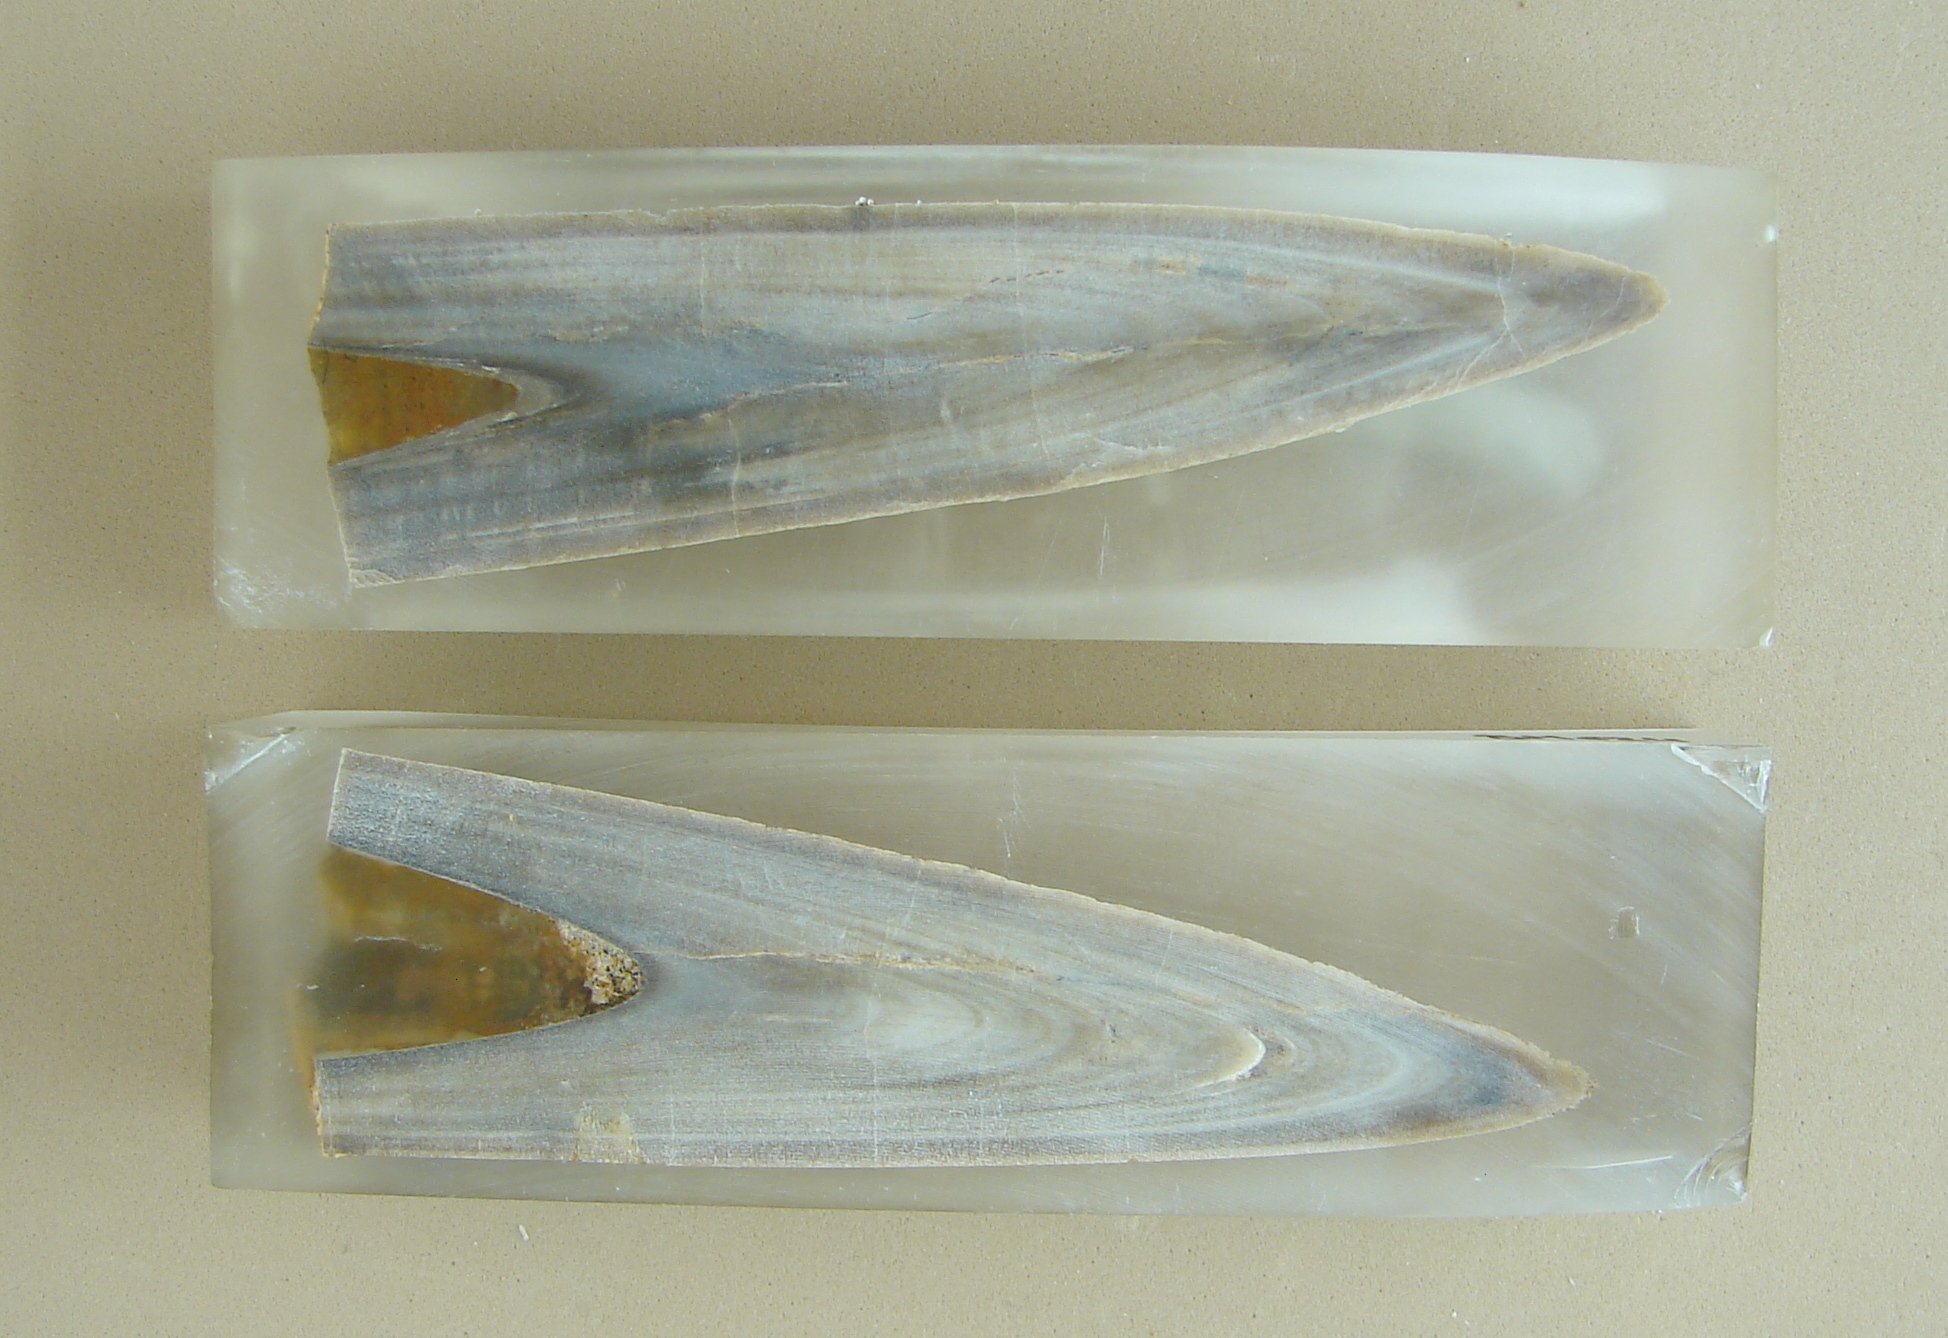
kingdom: Animalia
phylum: Mollusca
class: Cephalopoda
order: Belemnitida
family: Megateuthididae
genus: Megateuthis
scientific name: Megateuthis
